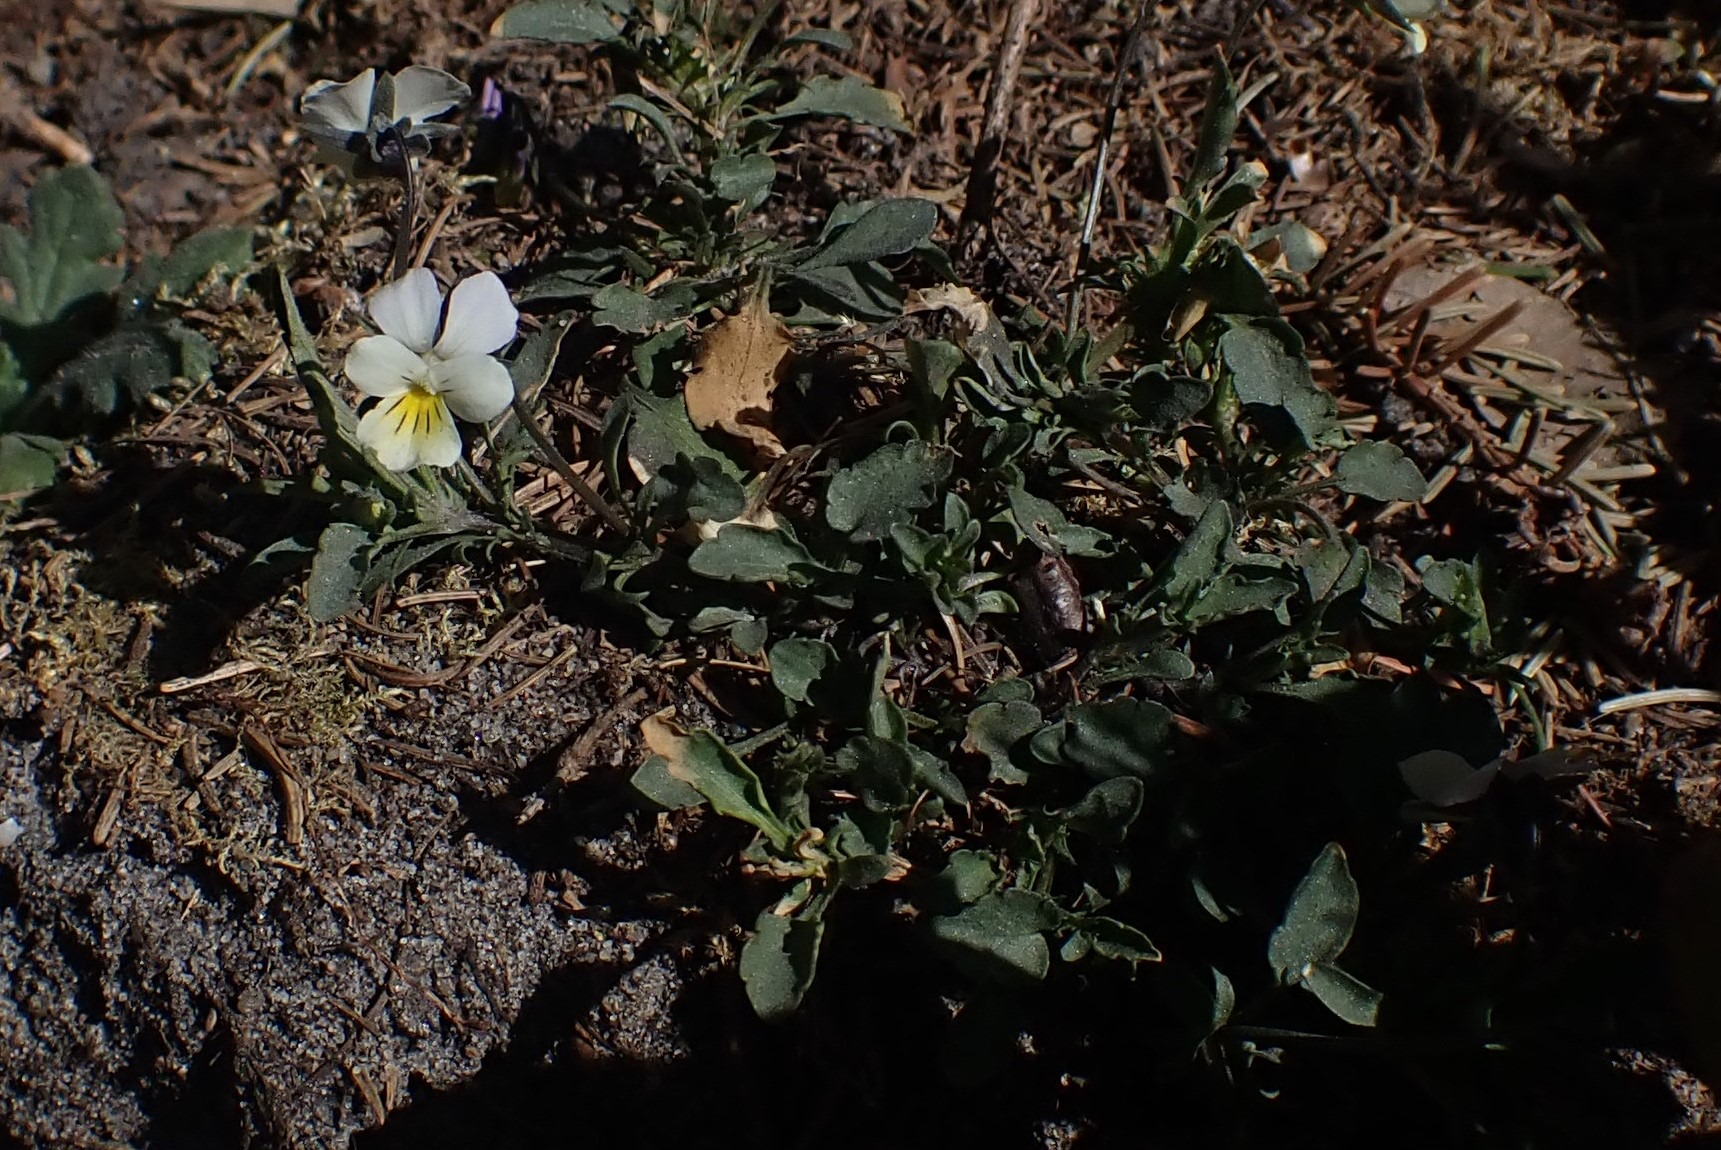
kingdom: Plantae
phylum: Tracheophyta
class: Magnoliopsida
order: Malpighiales
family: Violaceae
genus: Viola
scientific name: Viola arvensis
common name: Ager-stedmoderblomst
